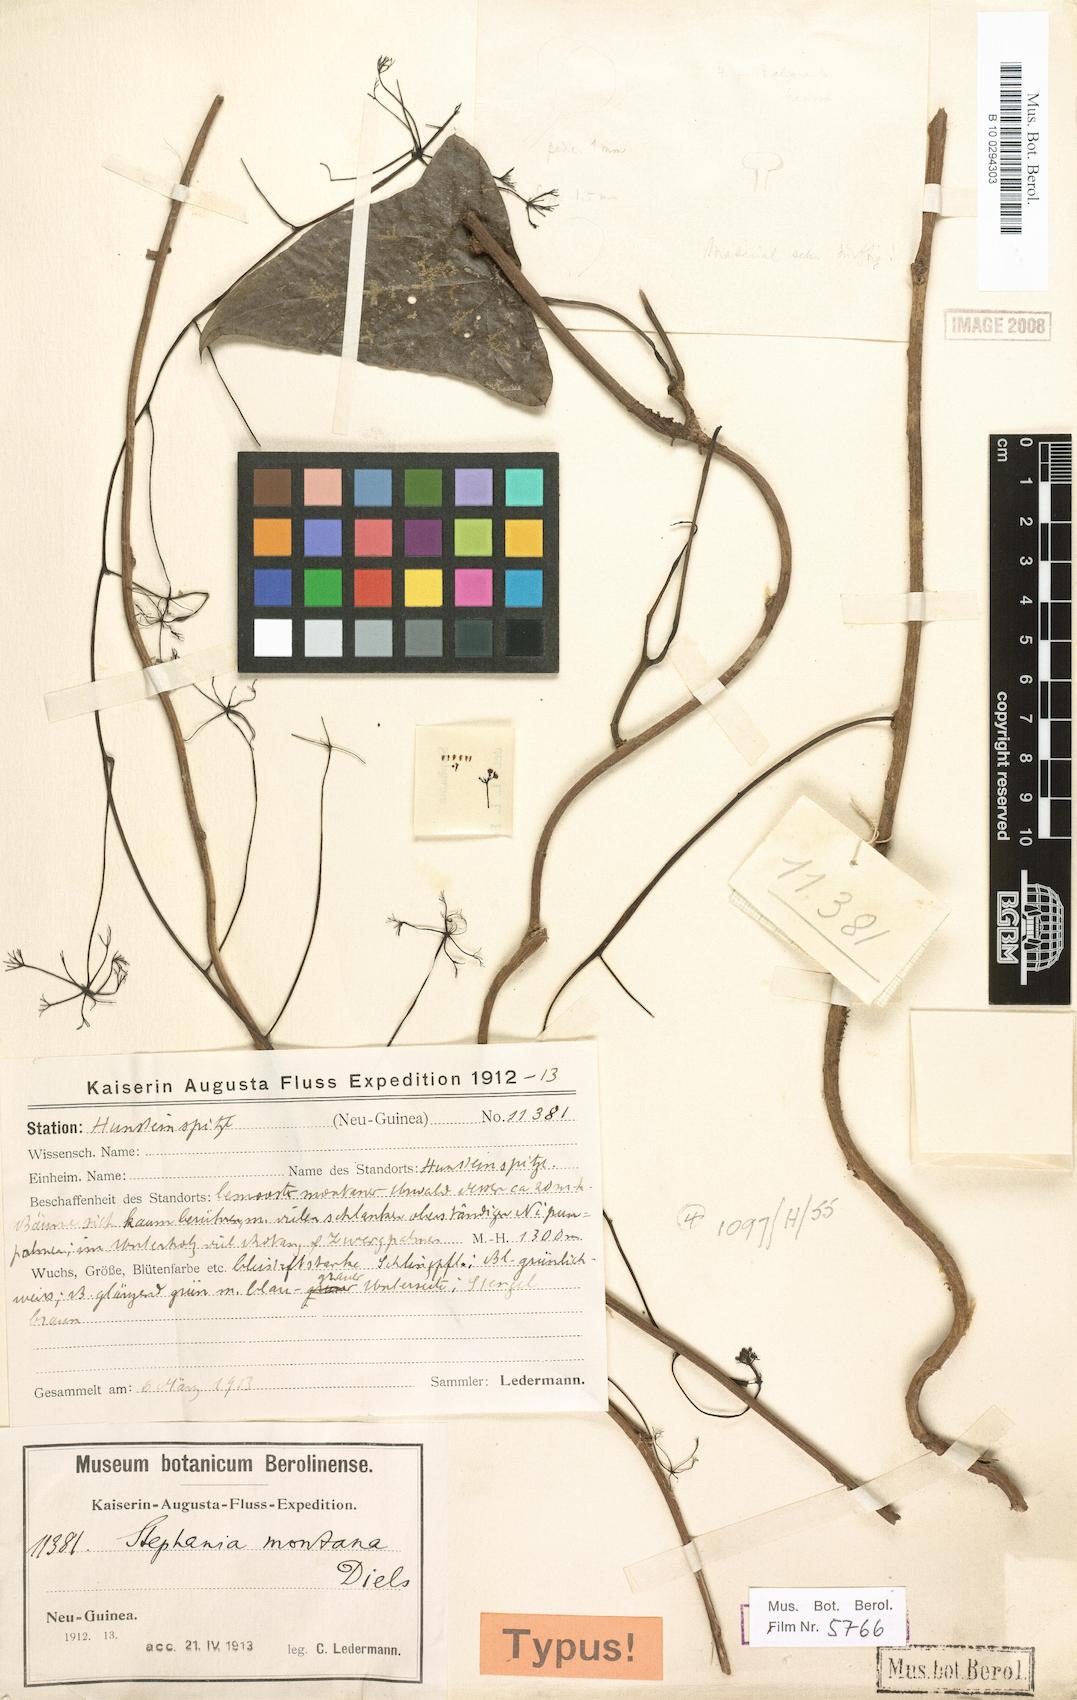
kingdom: Plantae
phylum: Tracheophyta
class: Magnoliopsida
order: Ranunculales
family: Menispermaceae
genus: Stephania
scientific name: Stephania montana
